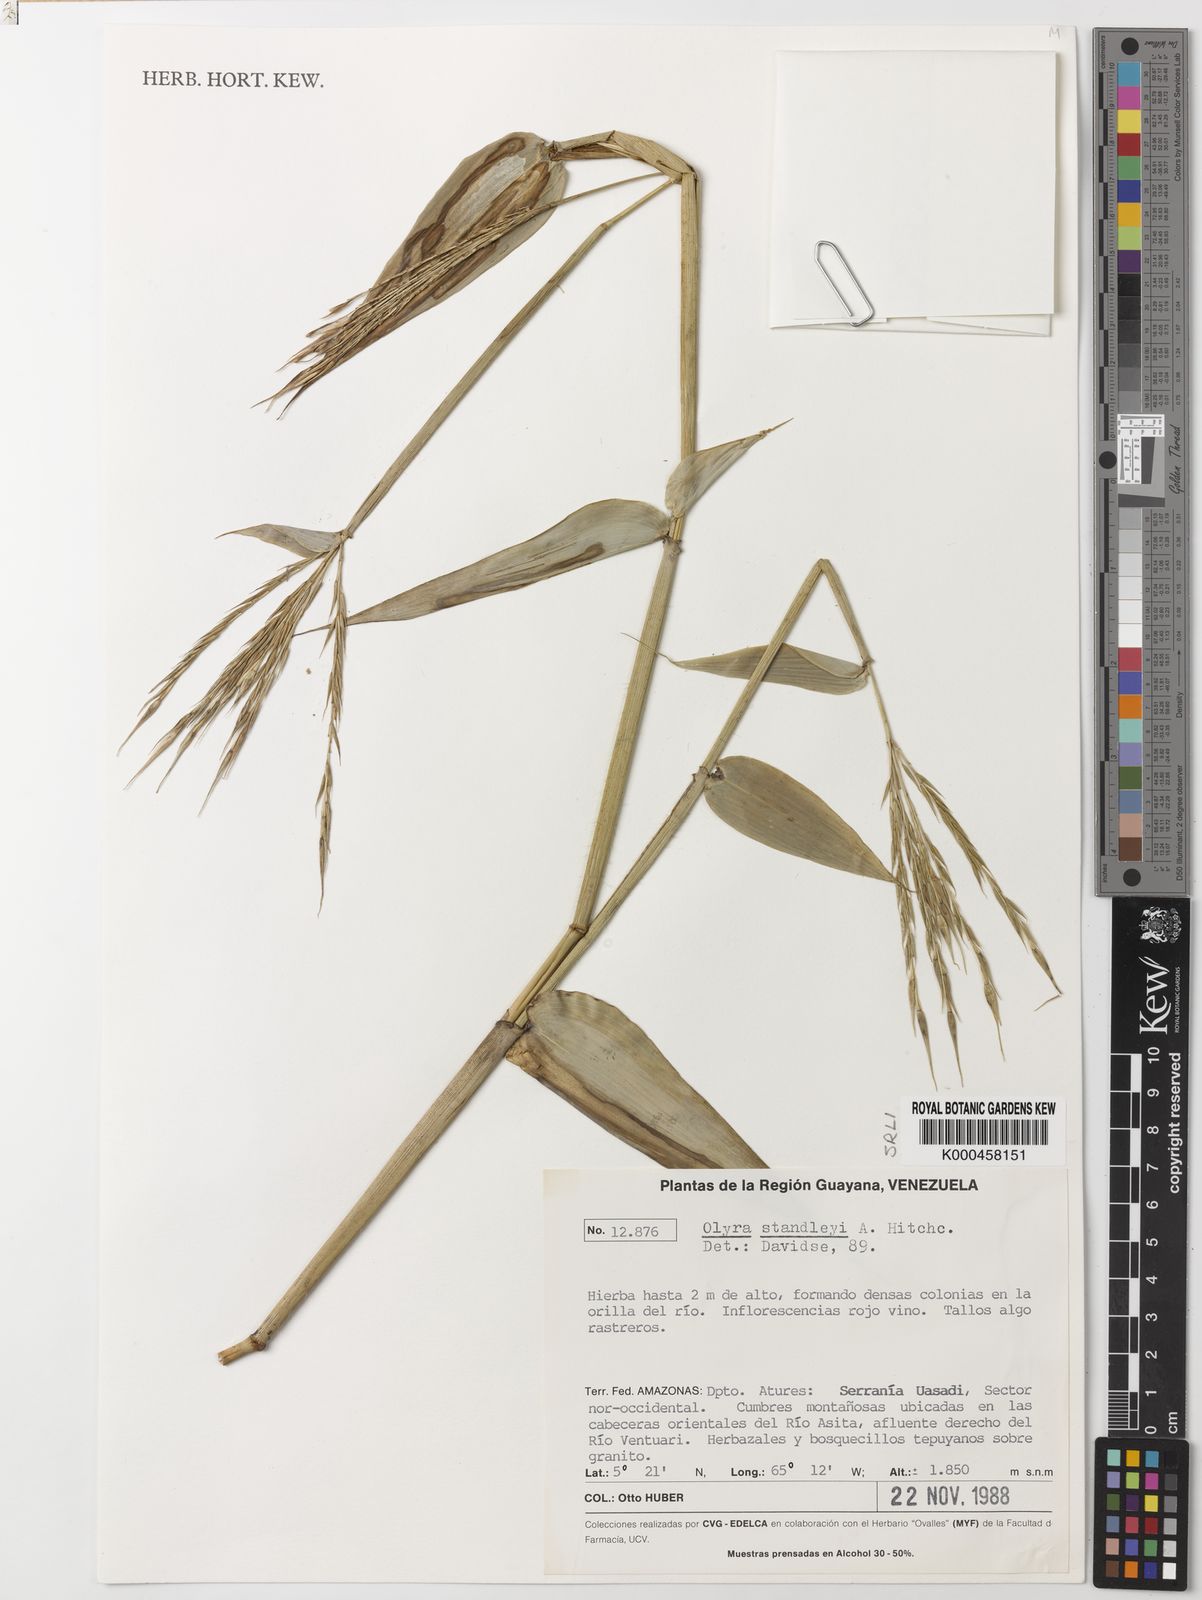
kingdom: Plantae
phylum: Tracheophyta
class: Liliopsida
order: Poales
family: Poaceae
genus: Olyra
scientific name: Olyra standleyi
